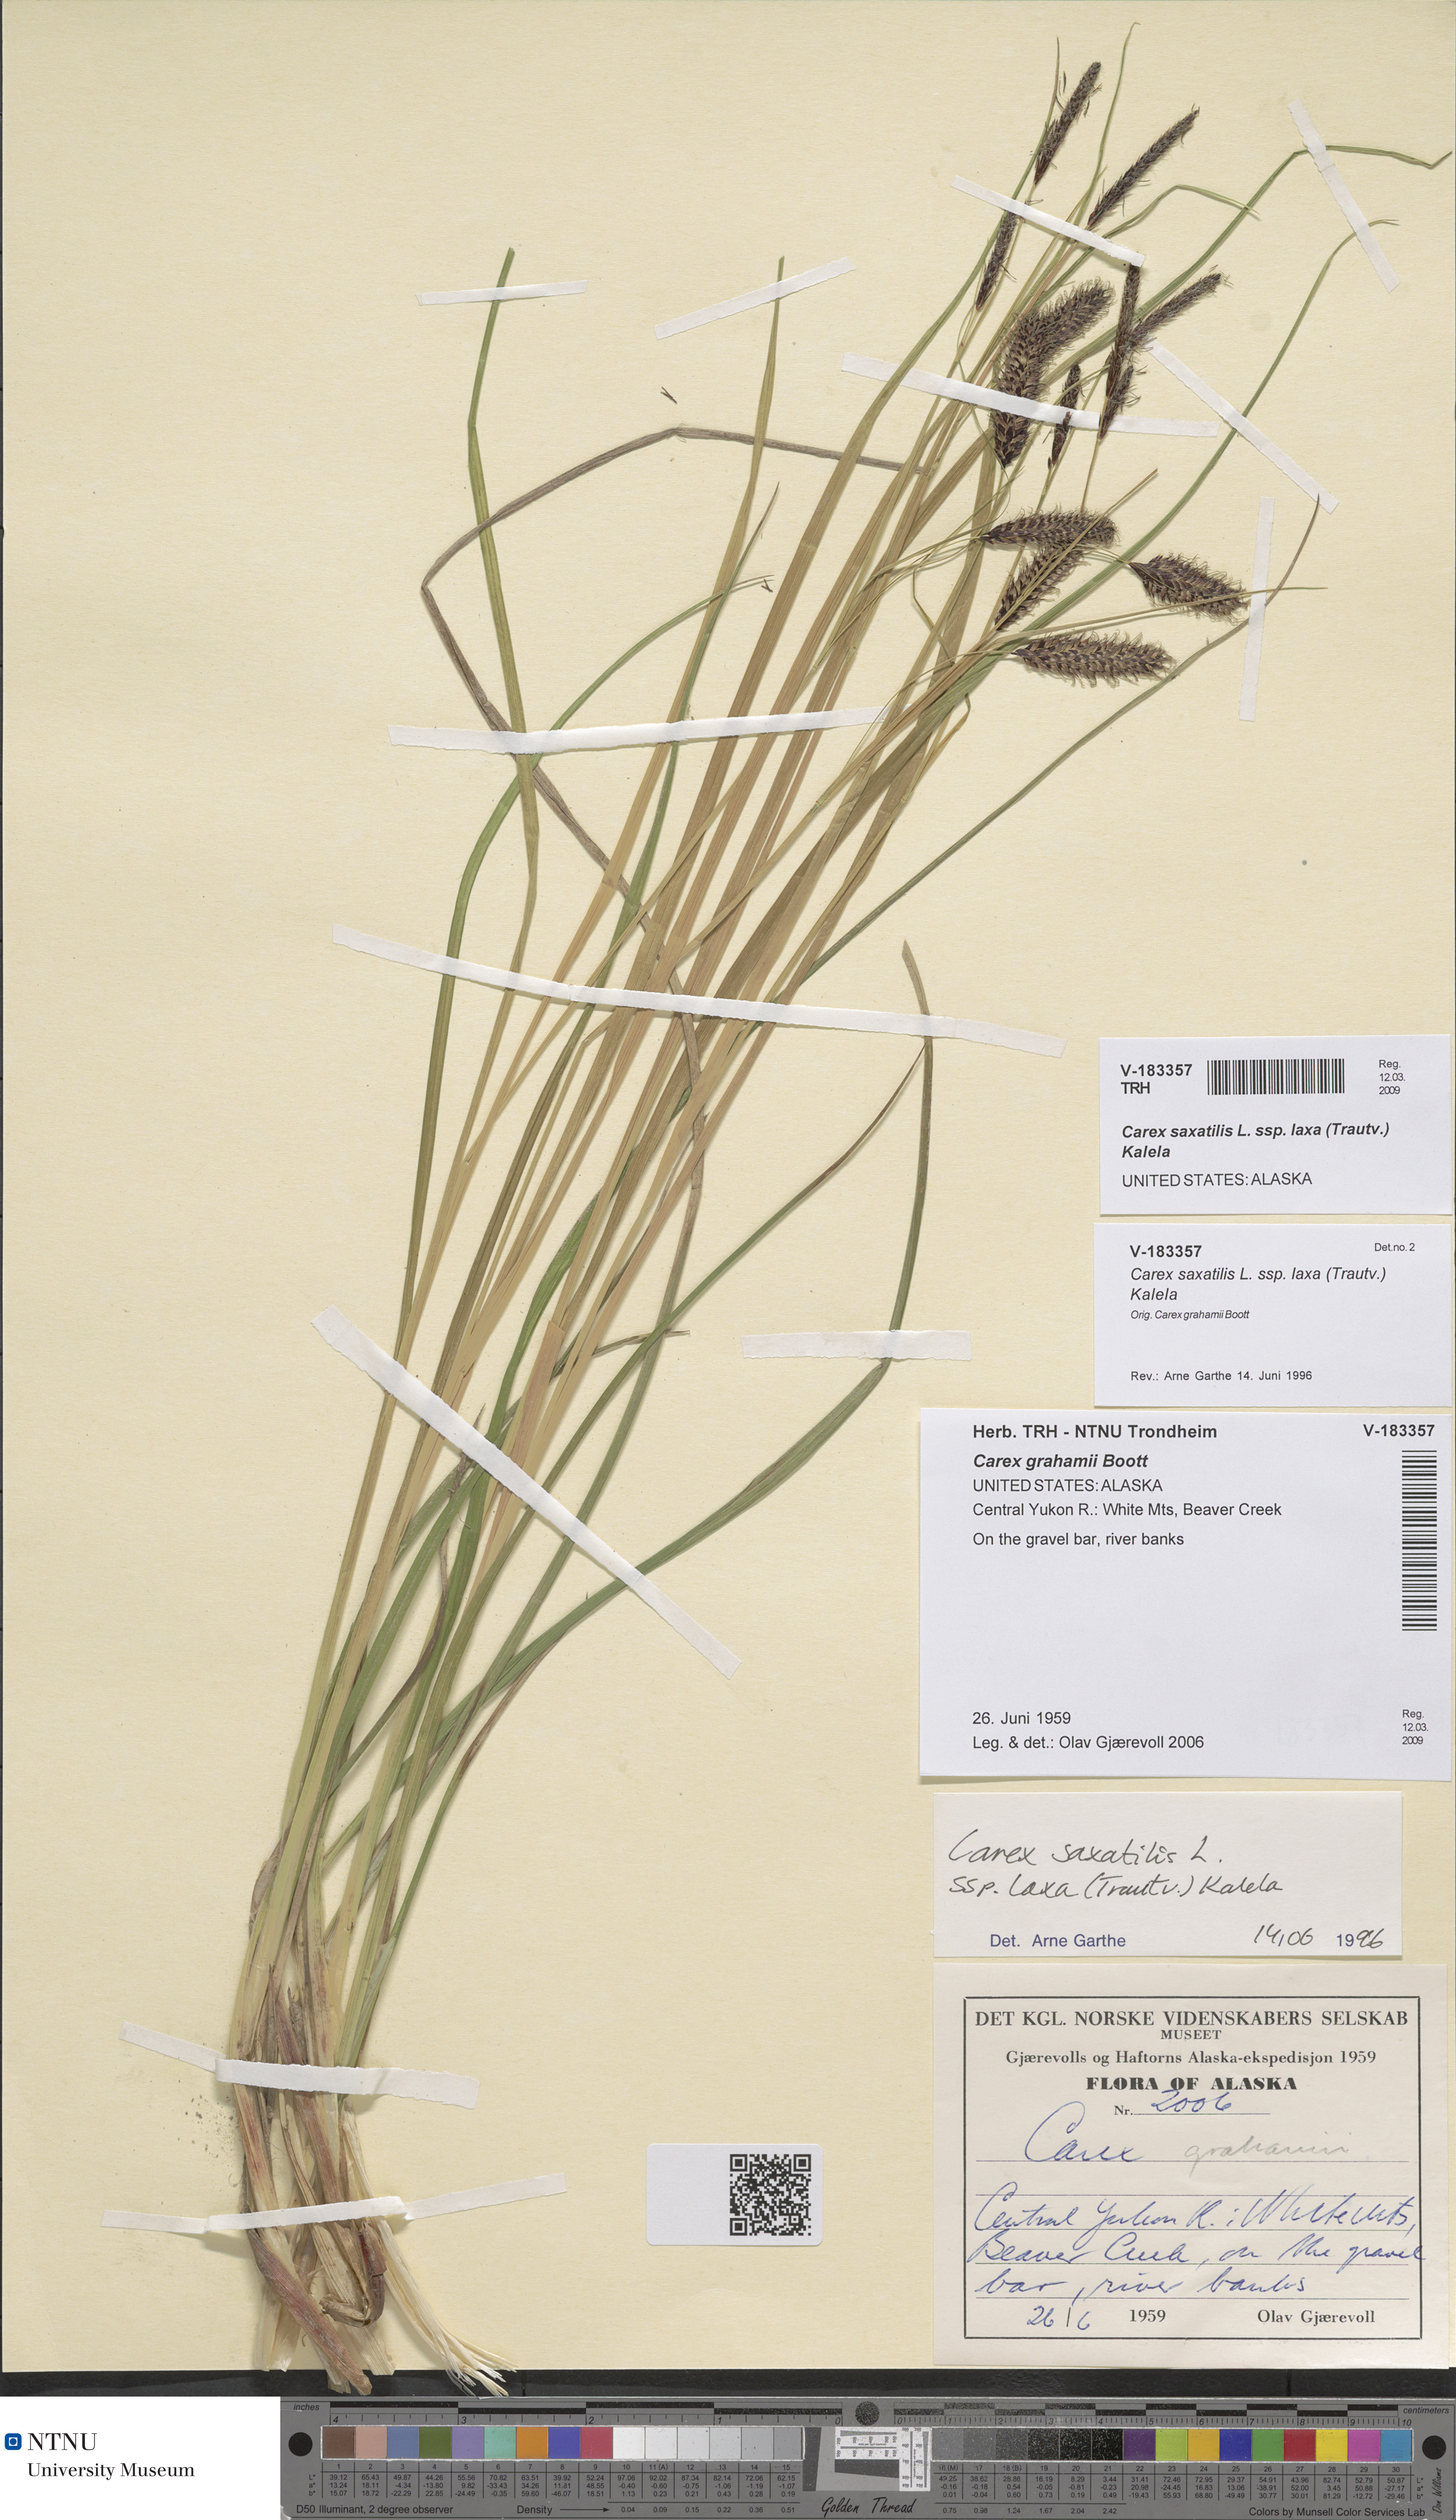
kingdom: Plantae
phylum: Tracheophyta
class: Liliopsida
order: Poales
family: Cyperaceae
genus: Carex
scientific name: Carex saxatilis
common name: Russet sedge
